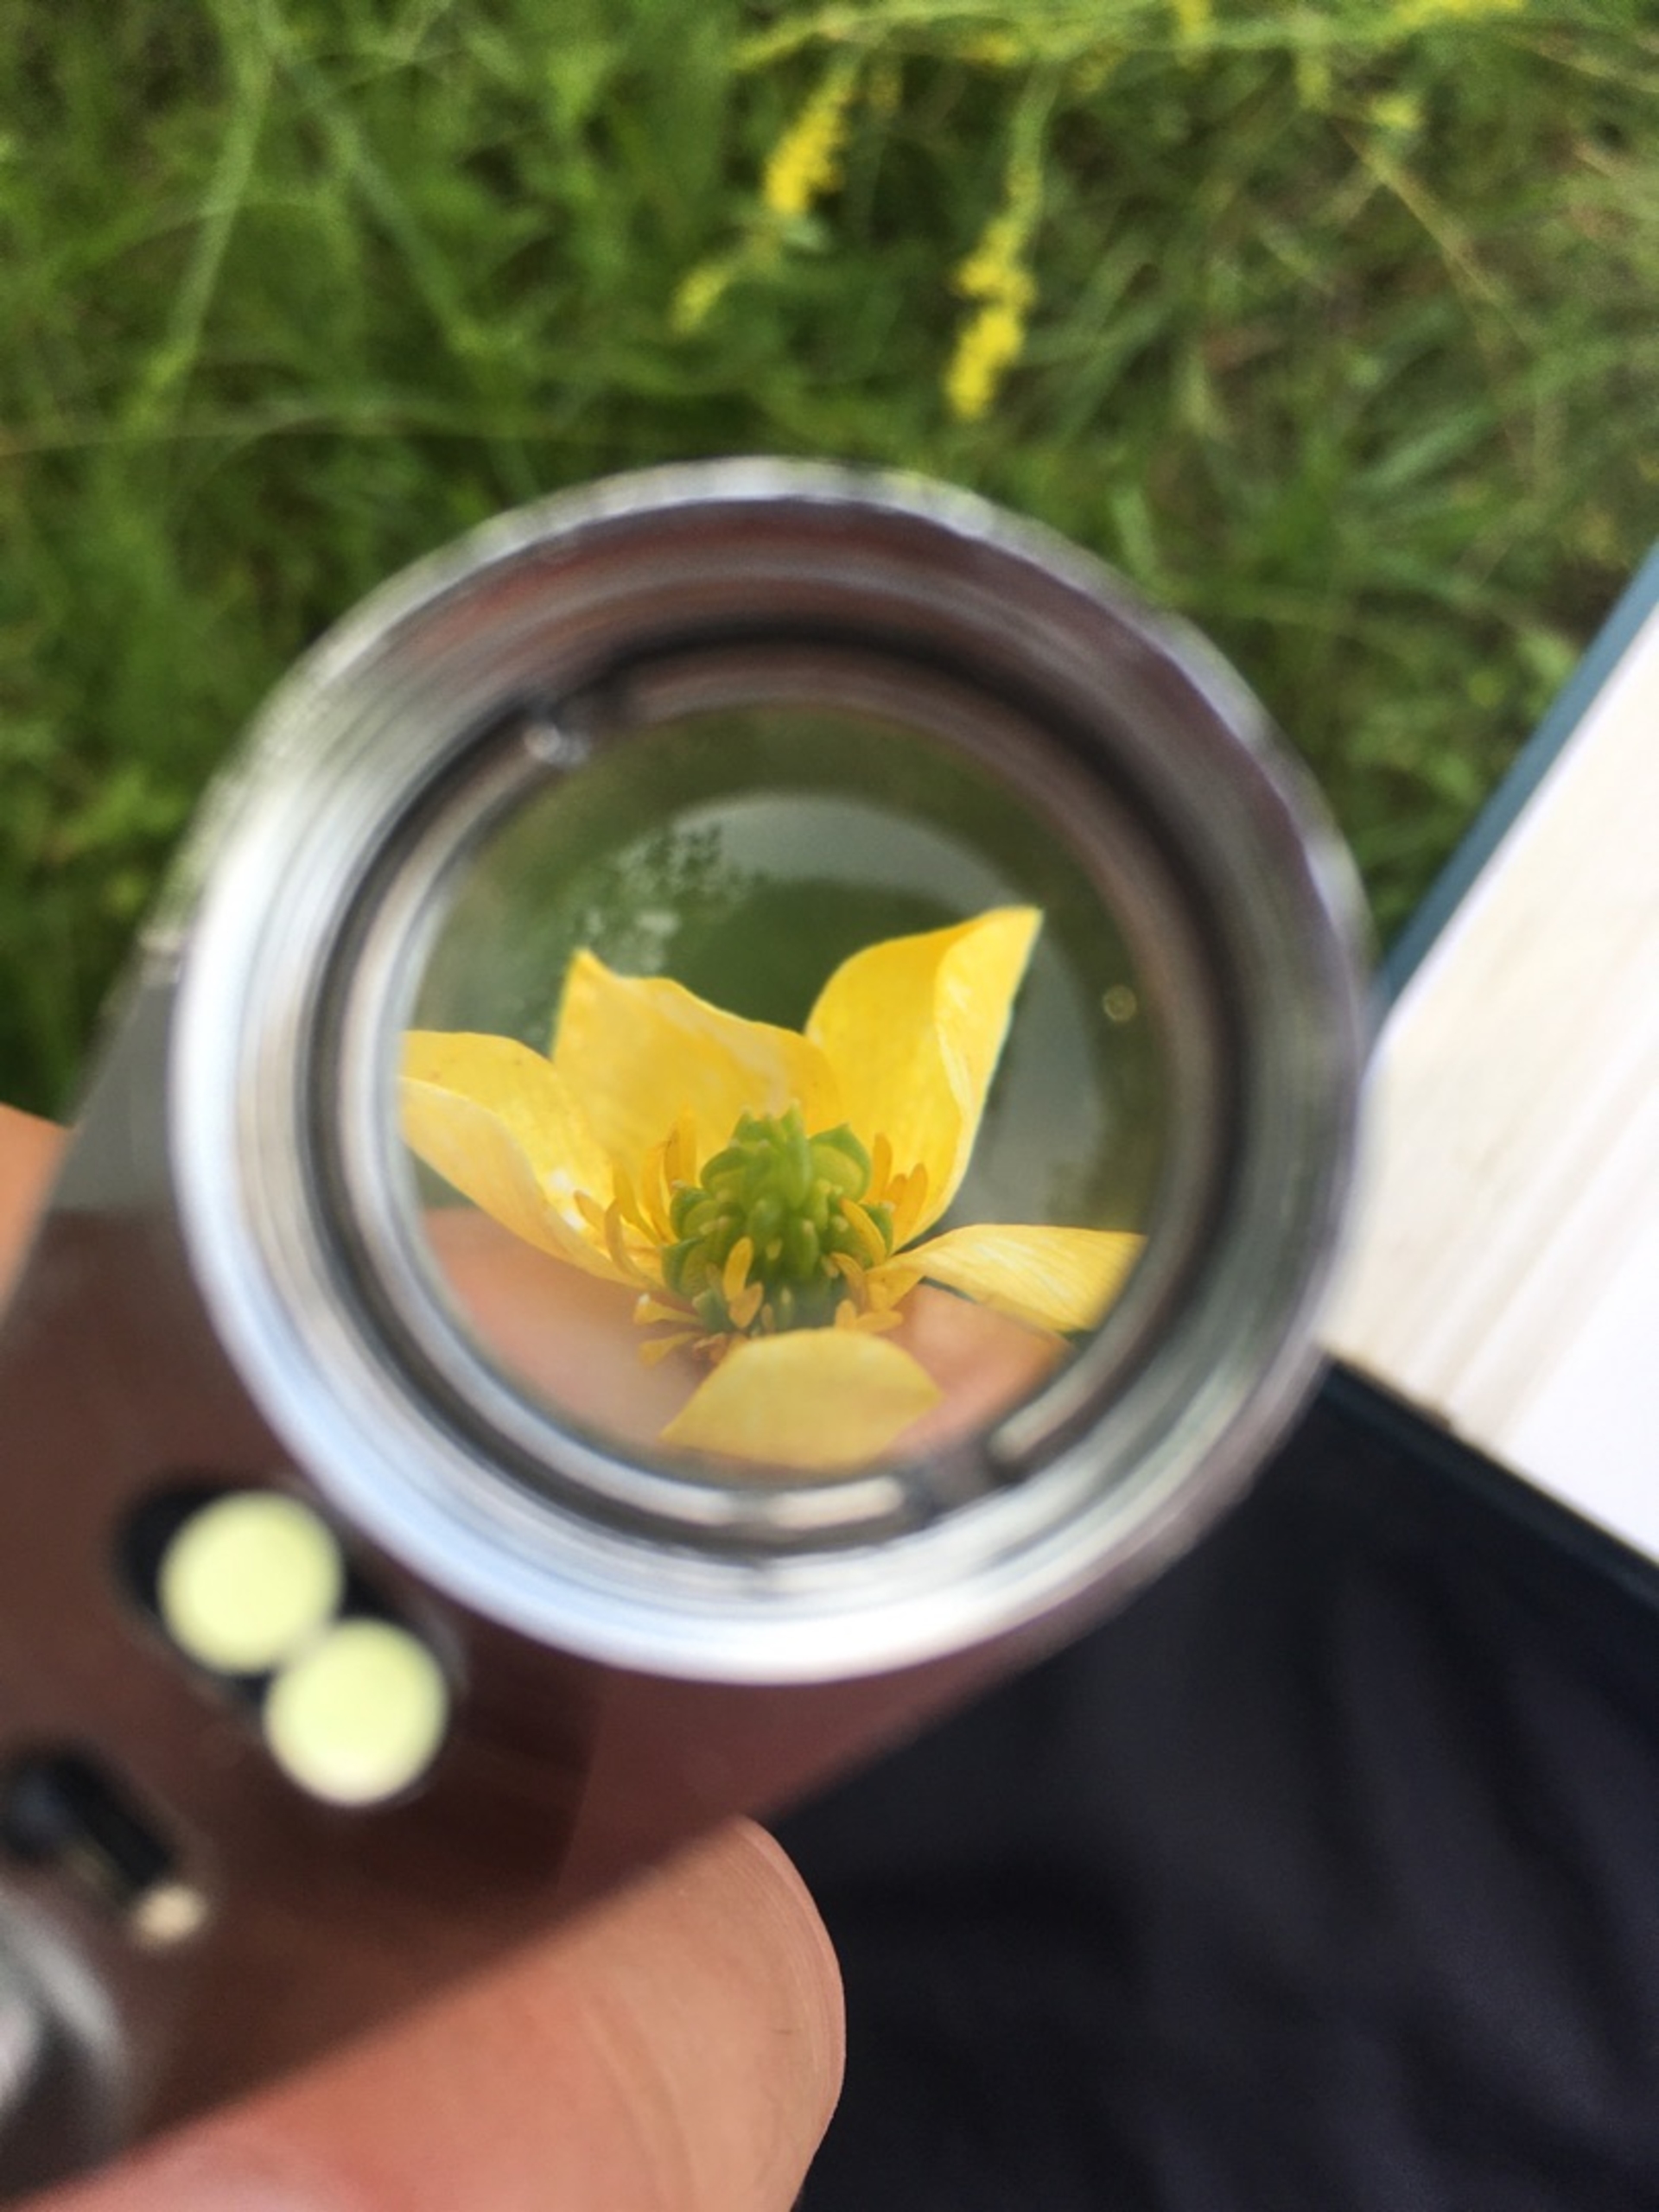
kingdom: Plantae
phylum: Tracheophyta
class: Magnoliopsida
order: Ranunculales
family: Ranunculaceae
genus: Ranunculus
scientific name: Ranunculus sardous
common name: Stivhåret ranunkel
